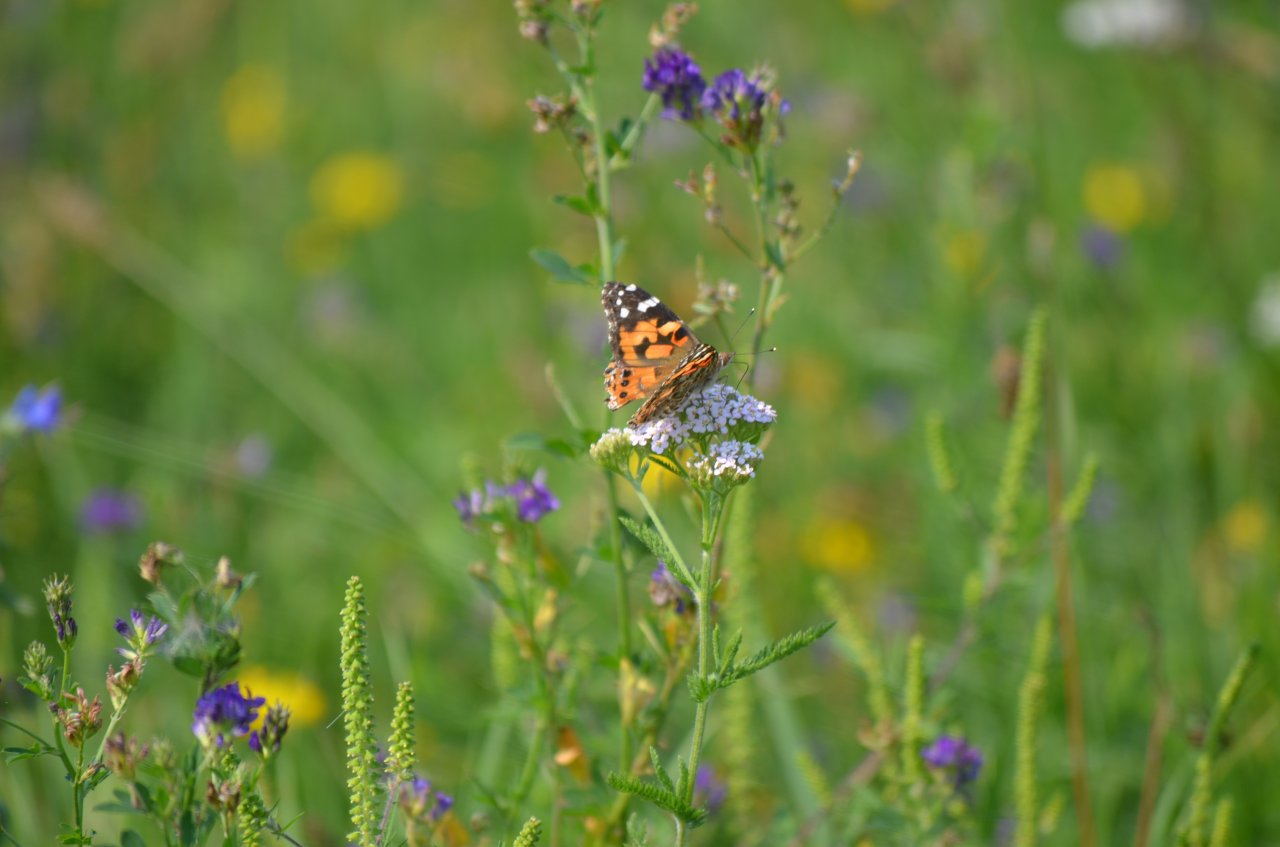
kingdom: Animalia
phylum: Arthropoda
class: Insecta
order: Lepidoptera
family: Nymphalidae
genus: Vanessa
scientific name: Vanessa cardui
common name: Painted Lady
